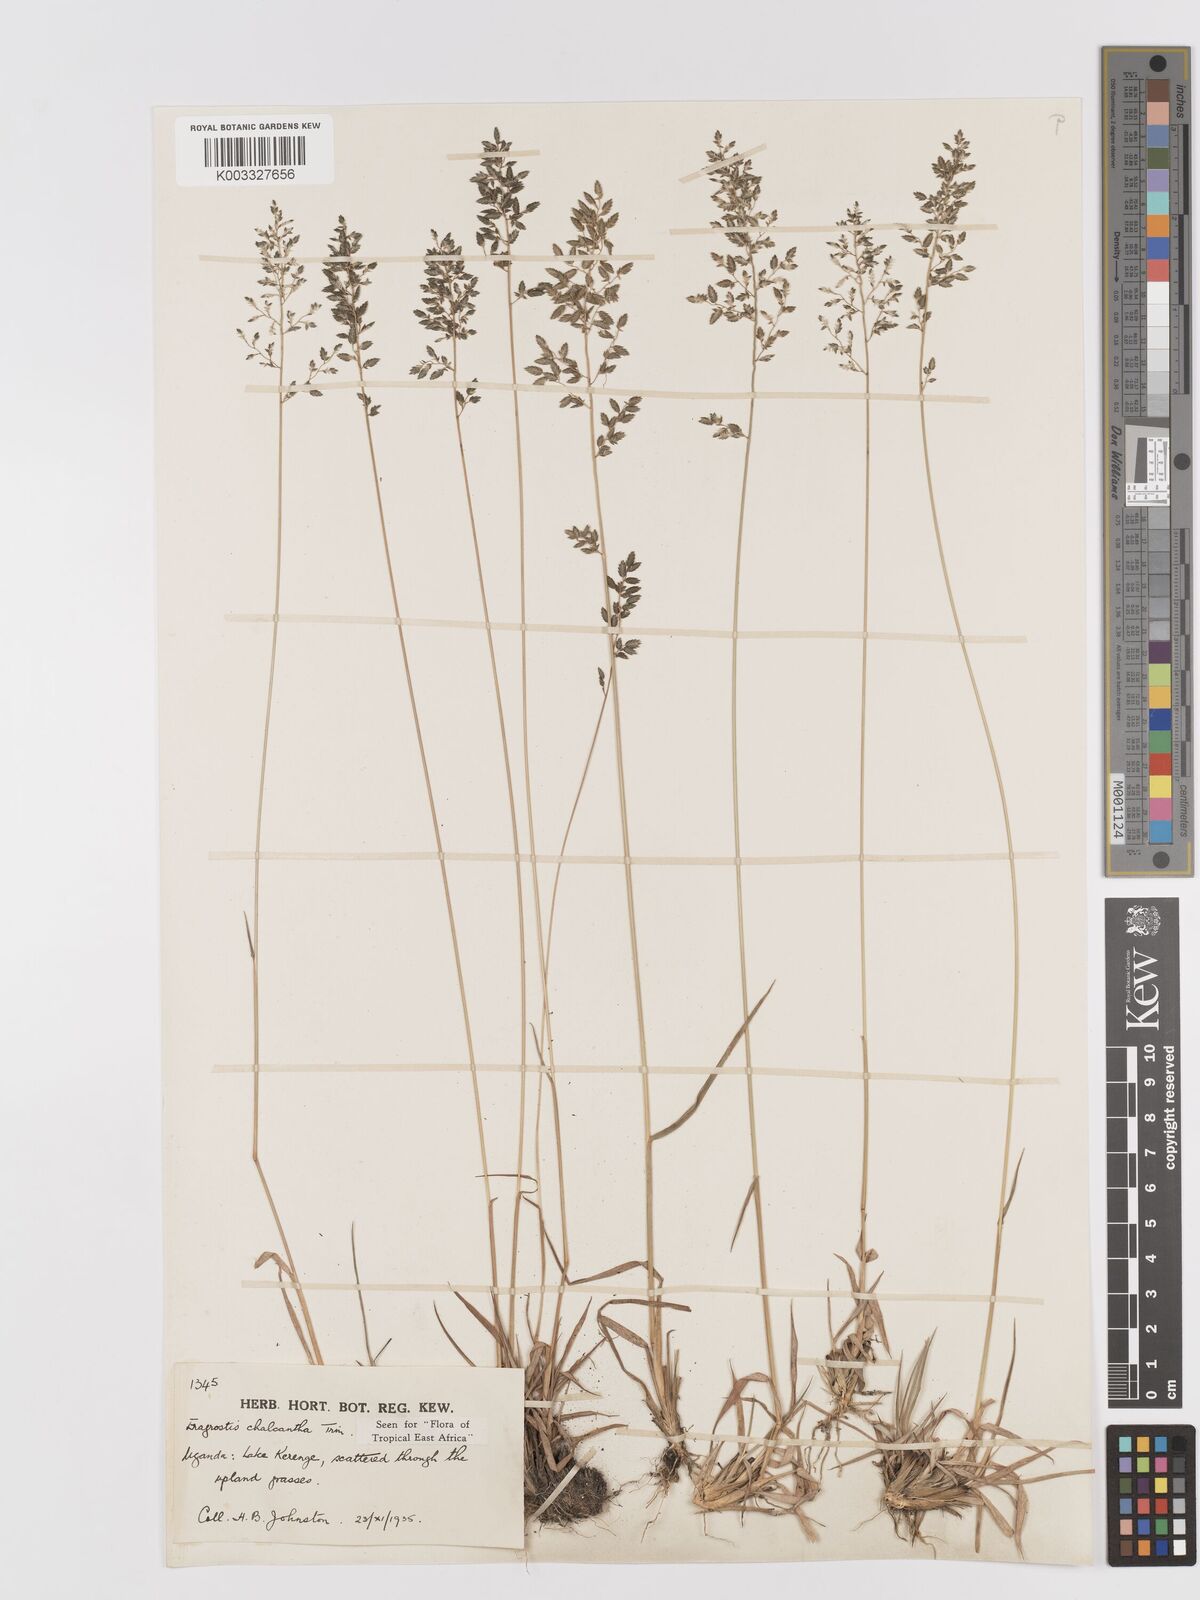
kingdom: Plantae
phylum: Tracheophyta
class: Liliopsida
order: Poales
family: Poaceae
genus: Eragrostis
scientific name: Eragrostis racemosa
